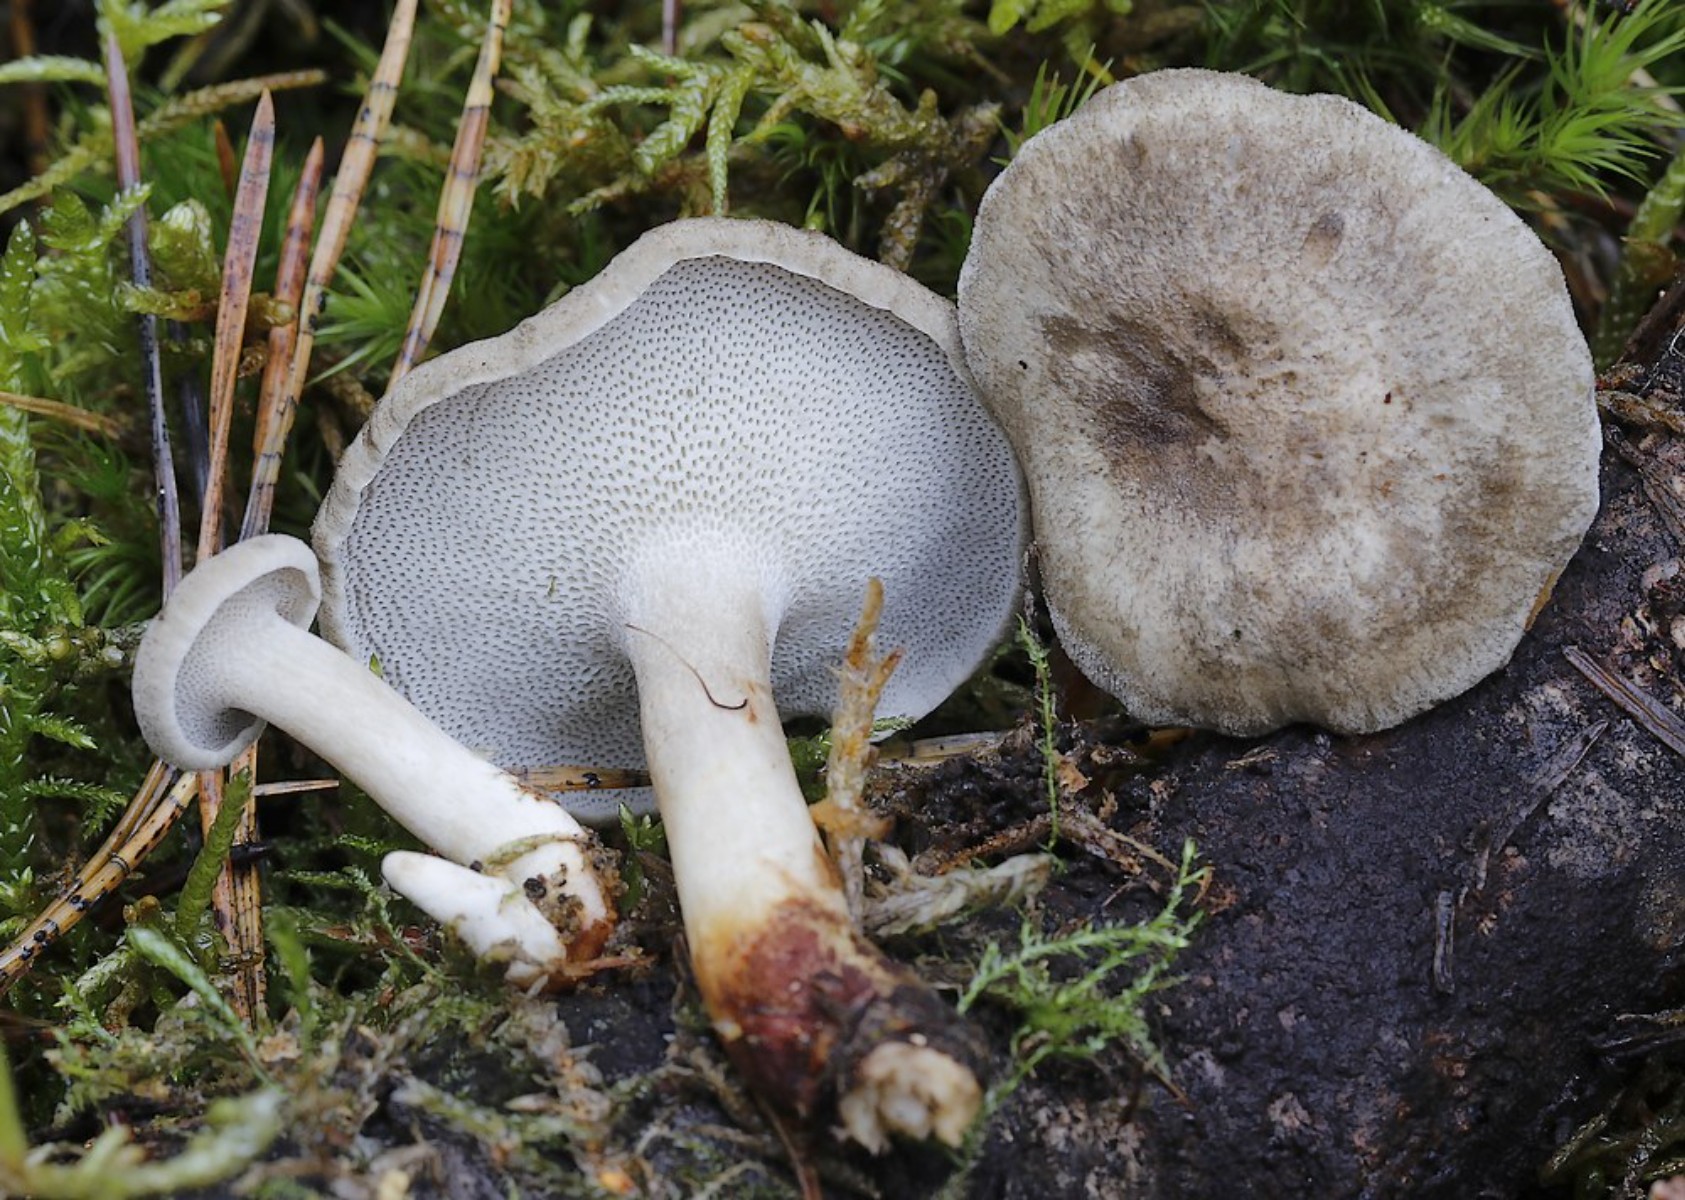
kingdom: Fungi
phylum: Basidiomycota
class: Agaricomycetes
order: Polyporales
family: Polyporaceae
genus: Lentinus
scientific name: Lentinus brumalis
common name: vinter-stilkporesvamp
